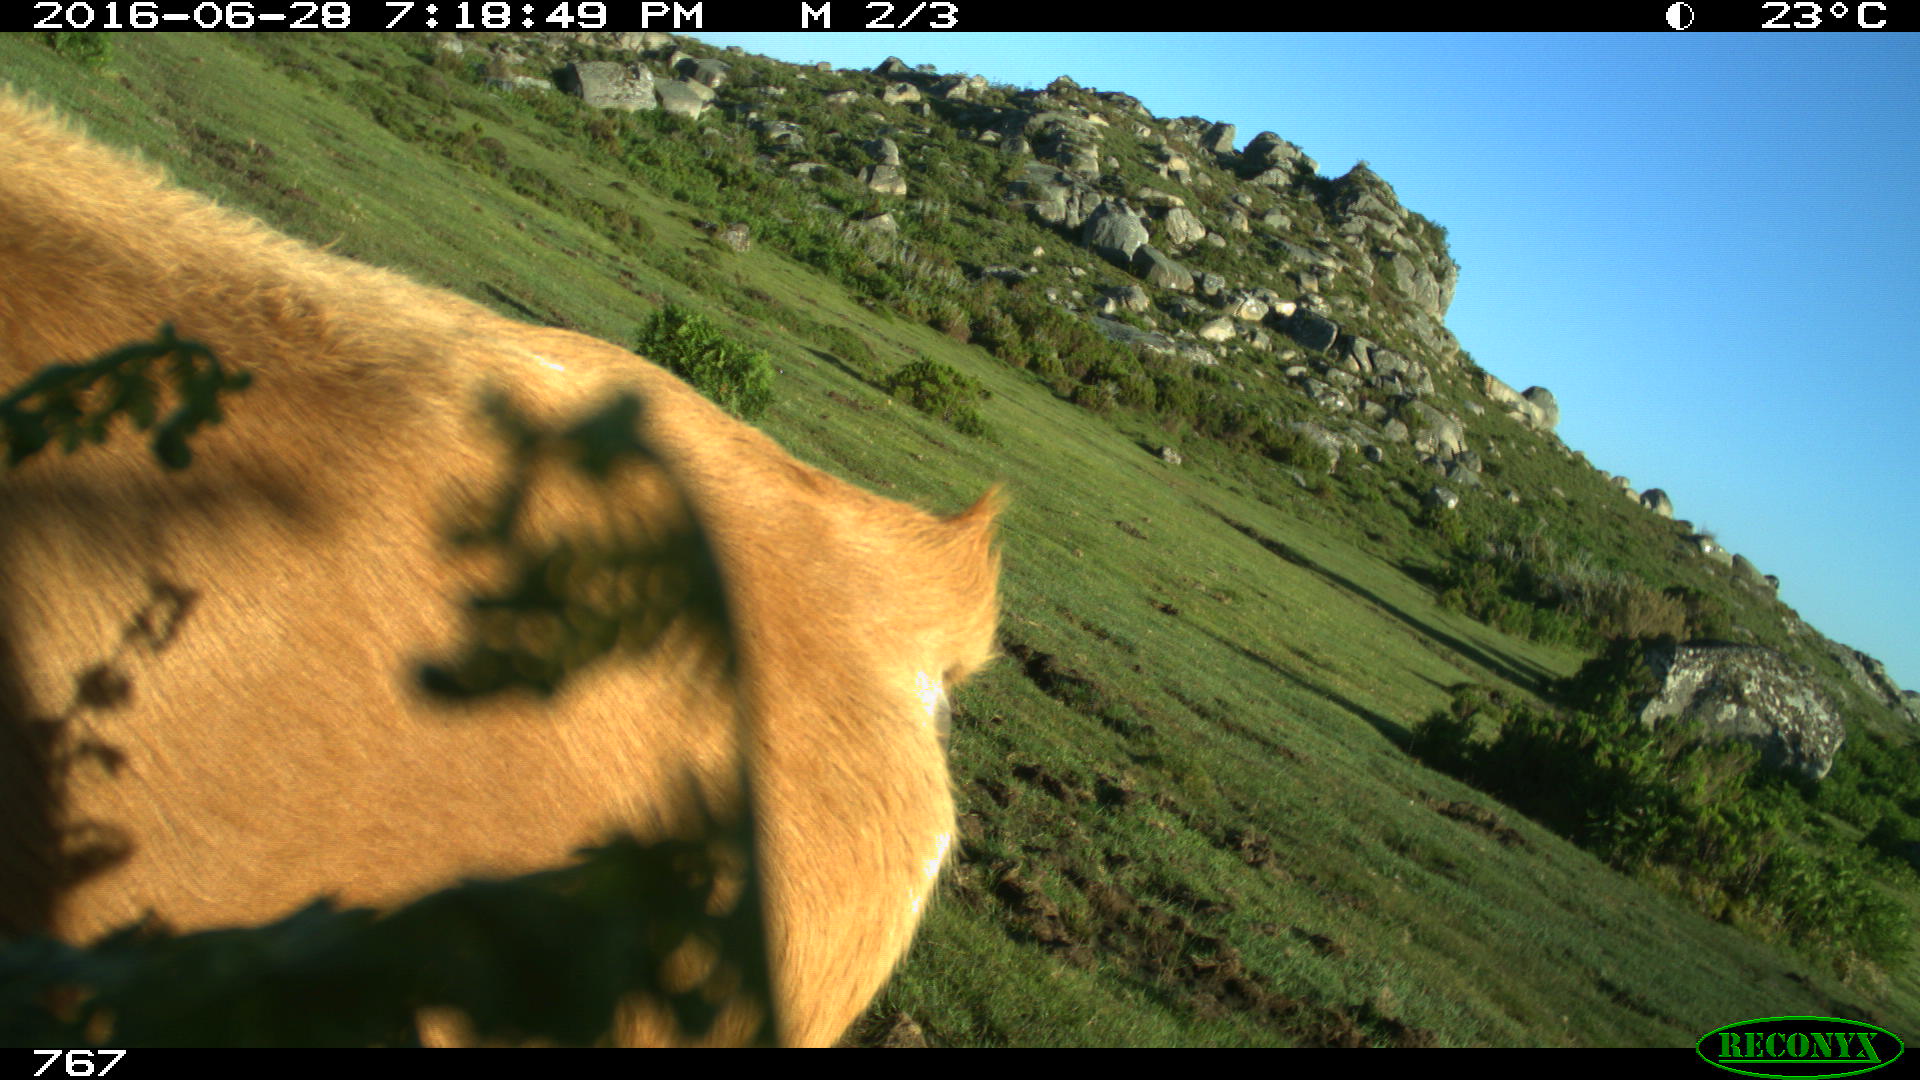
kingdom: Animalia
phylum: Chordata
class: Mammalia
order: Artiodactyla
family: Bovidae
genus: Bos
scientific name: Bos taurus
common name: Domesticated cattle
